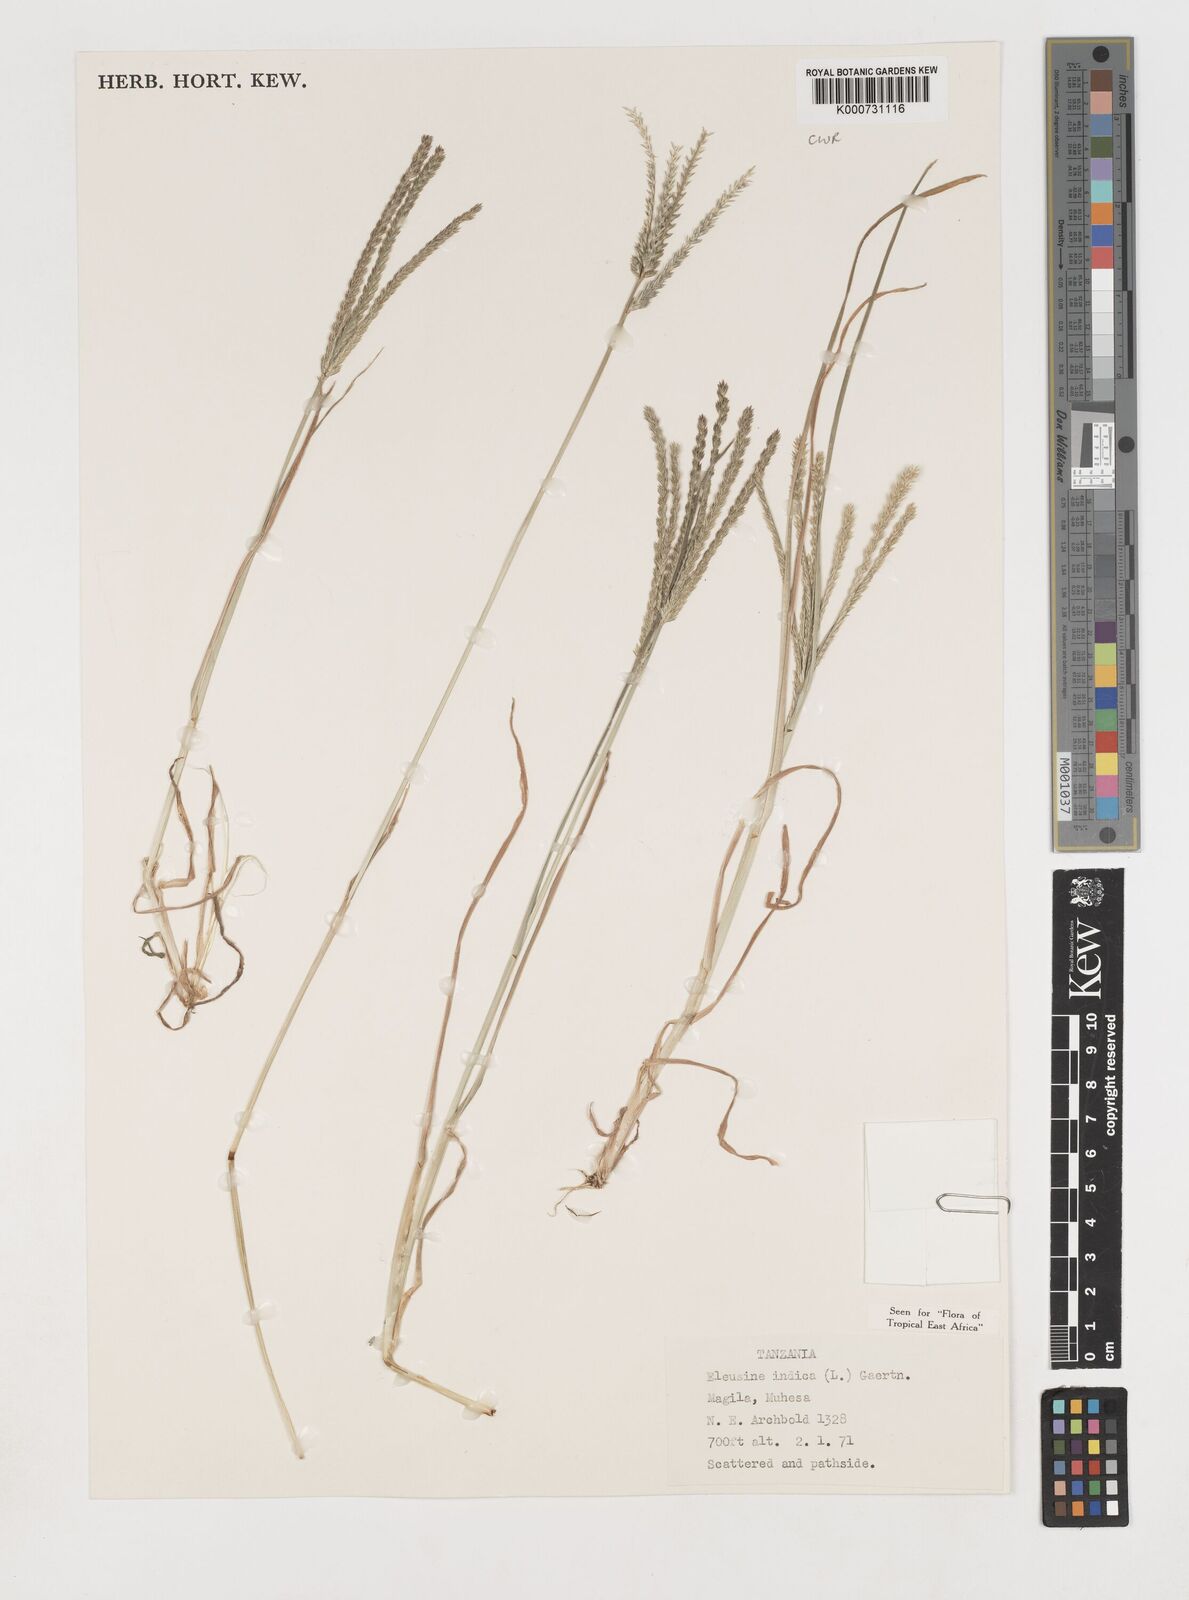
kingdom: Plantae
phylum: Tracheophyta
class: Liliopsida
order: Poales
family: Poaceae
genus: Eleusine
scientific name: Eleusine indica
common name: Yard-grass
